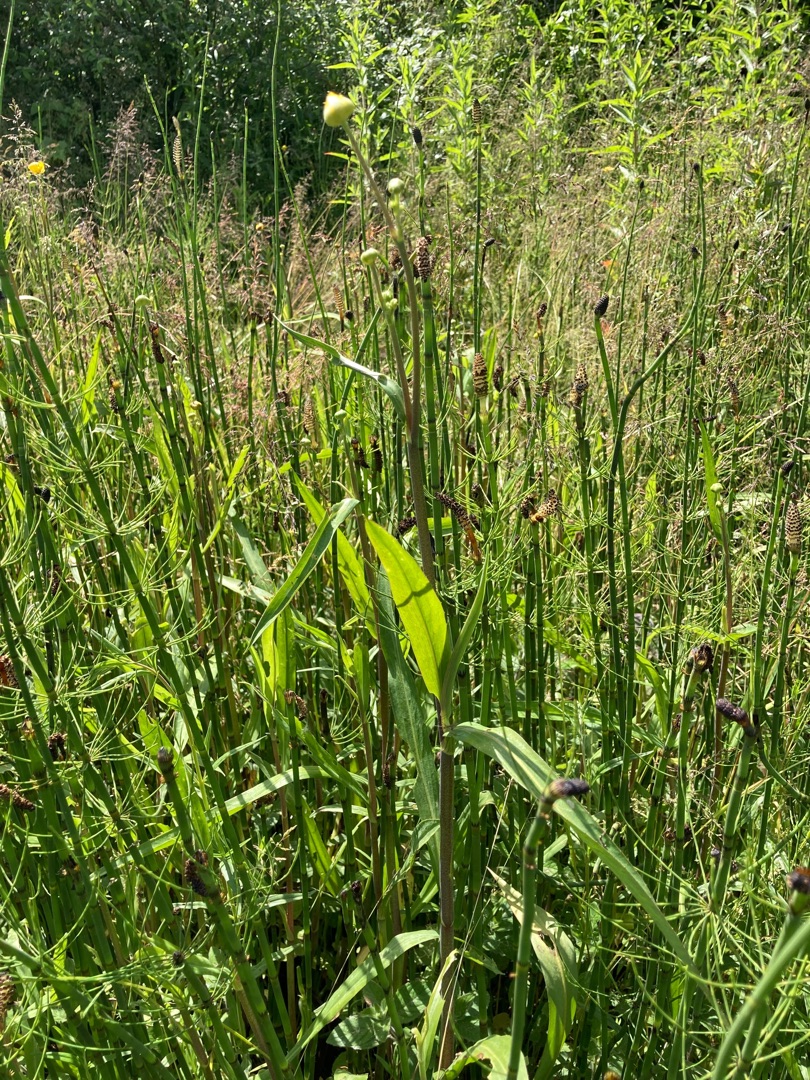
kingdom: Plantae
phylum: Tracheophyta
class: Magnoliopsida
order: Ranunculales
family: Ranunculaceae
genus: Ranunculus
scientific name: Ranunculus lingua
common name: Langbladet ranunkel
